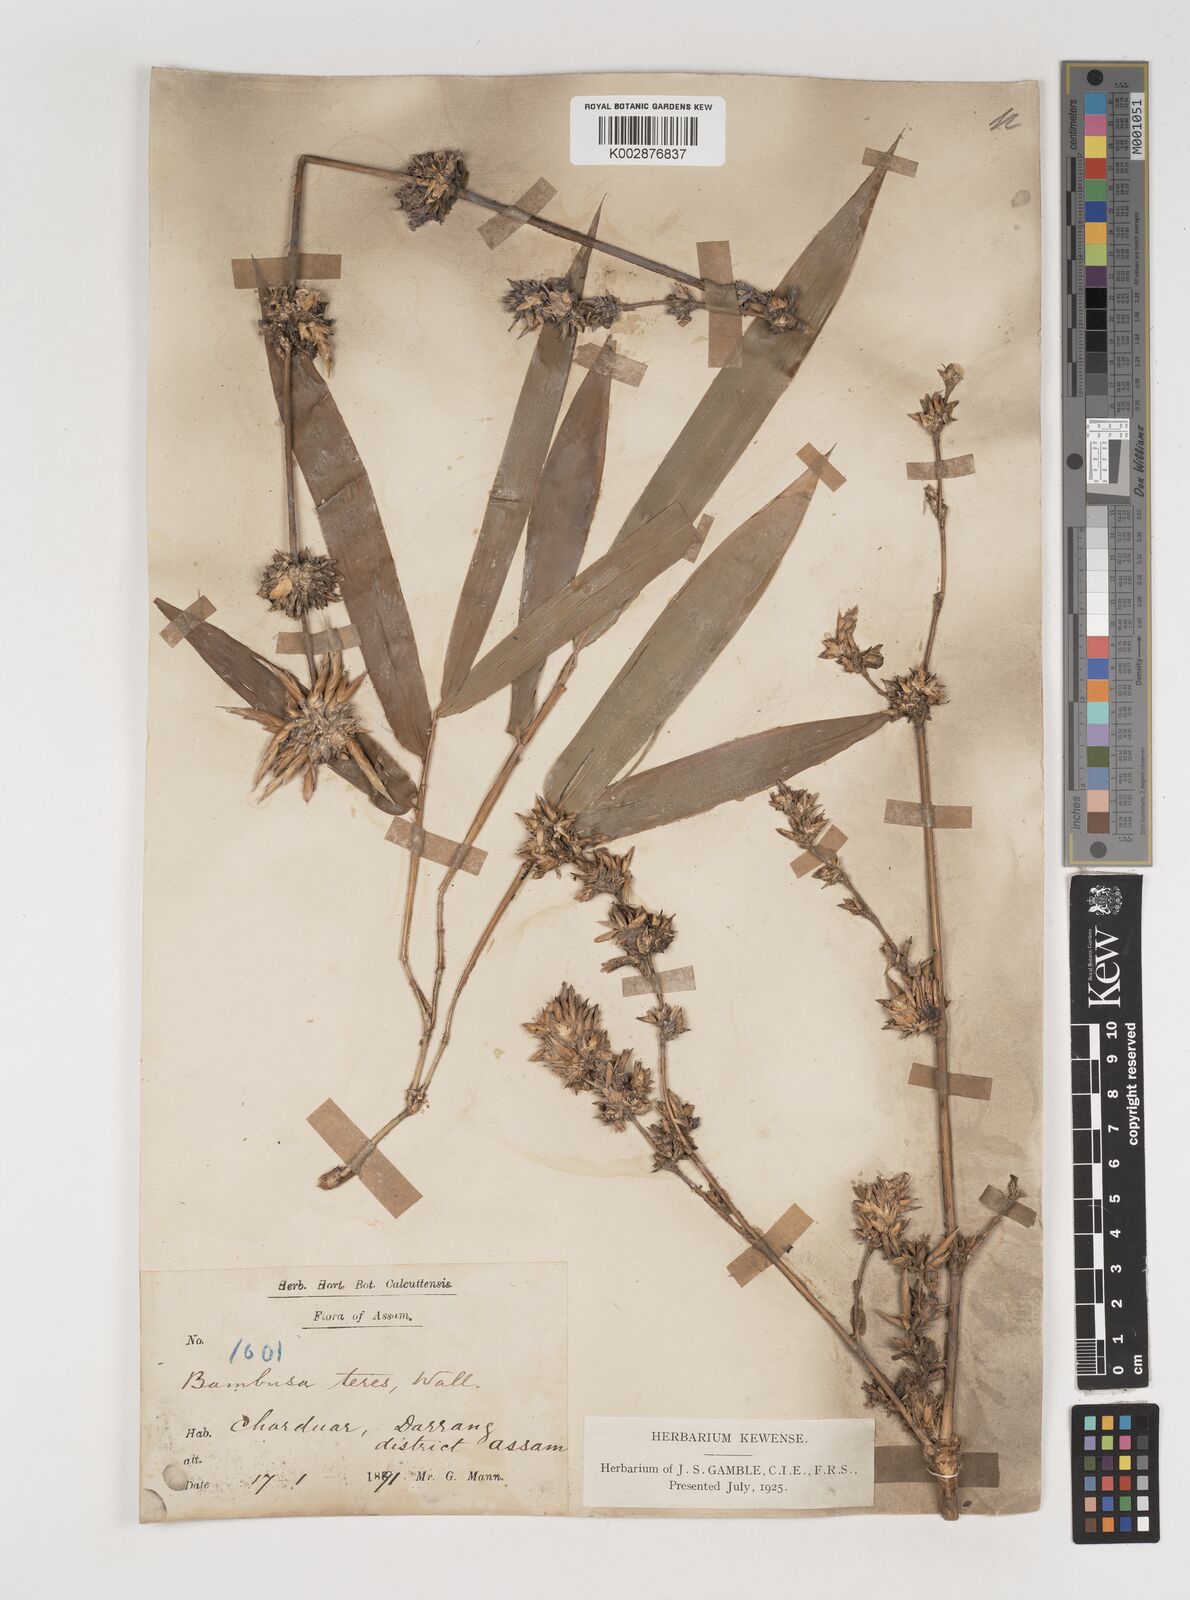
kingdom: Plantae
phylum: Tracheophyta
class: Liliopsida
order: Poales
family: Poaceae
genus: Bambusa
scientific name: Bambusa teres
